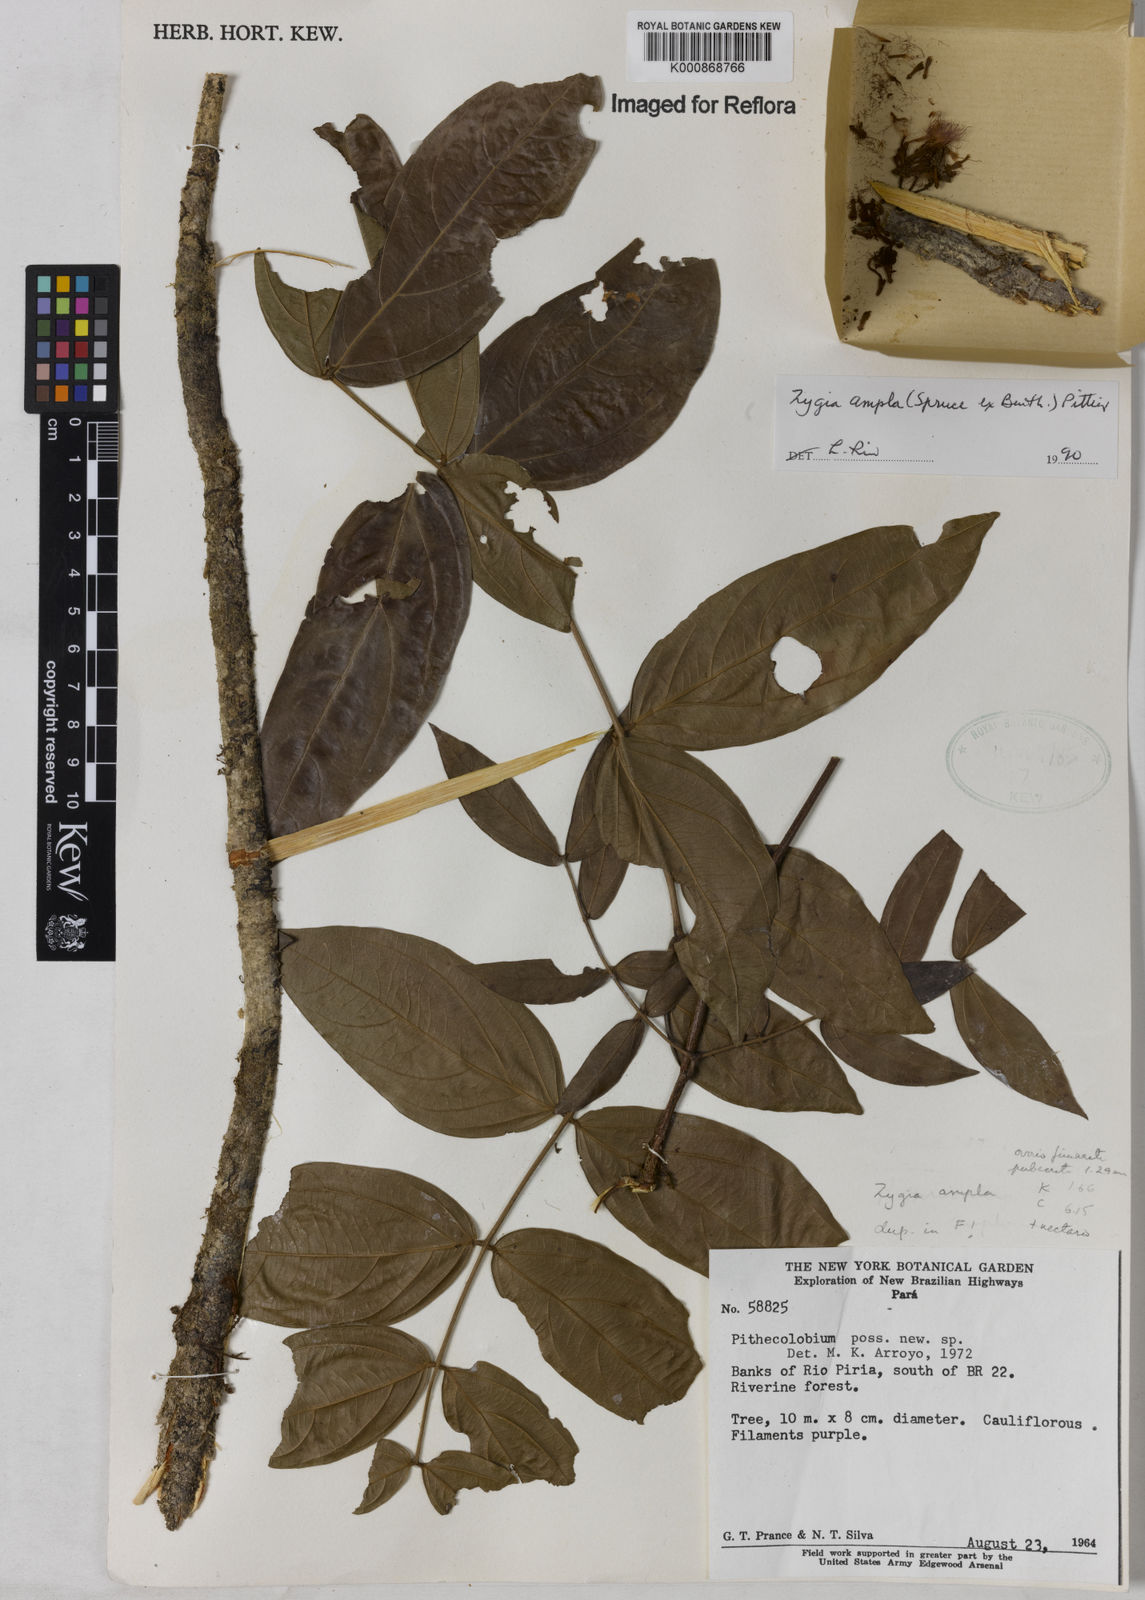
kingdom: Plantae
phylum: Tracheophyta
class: Magnoliopsida
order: Fabales
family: Fabaceae
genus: Zygia
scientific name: Zygia ampla
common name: Jarendeua de sapo
